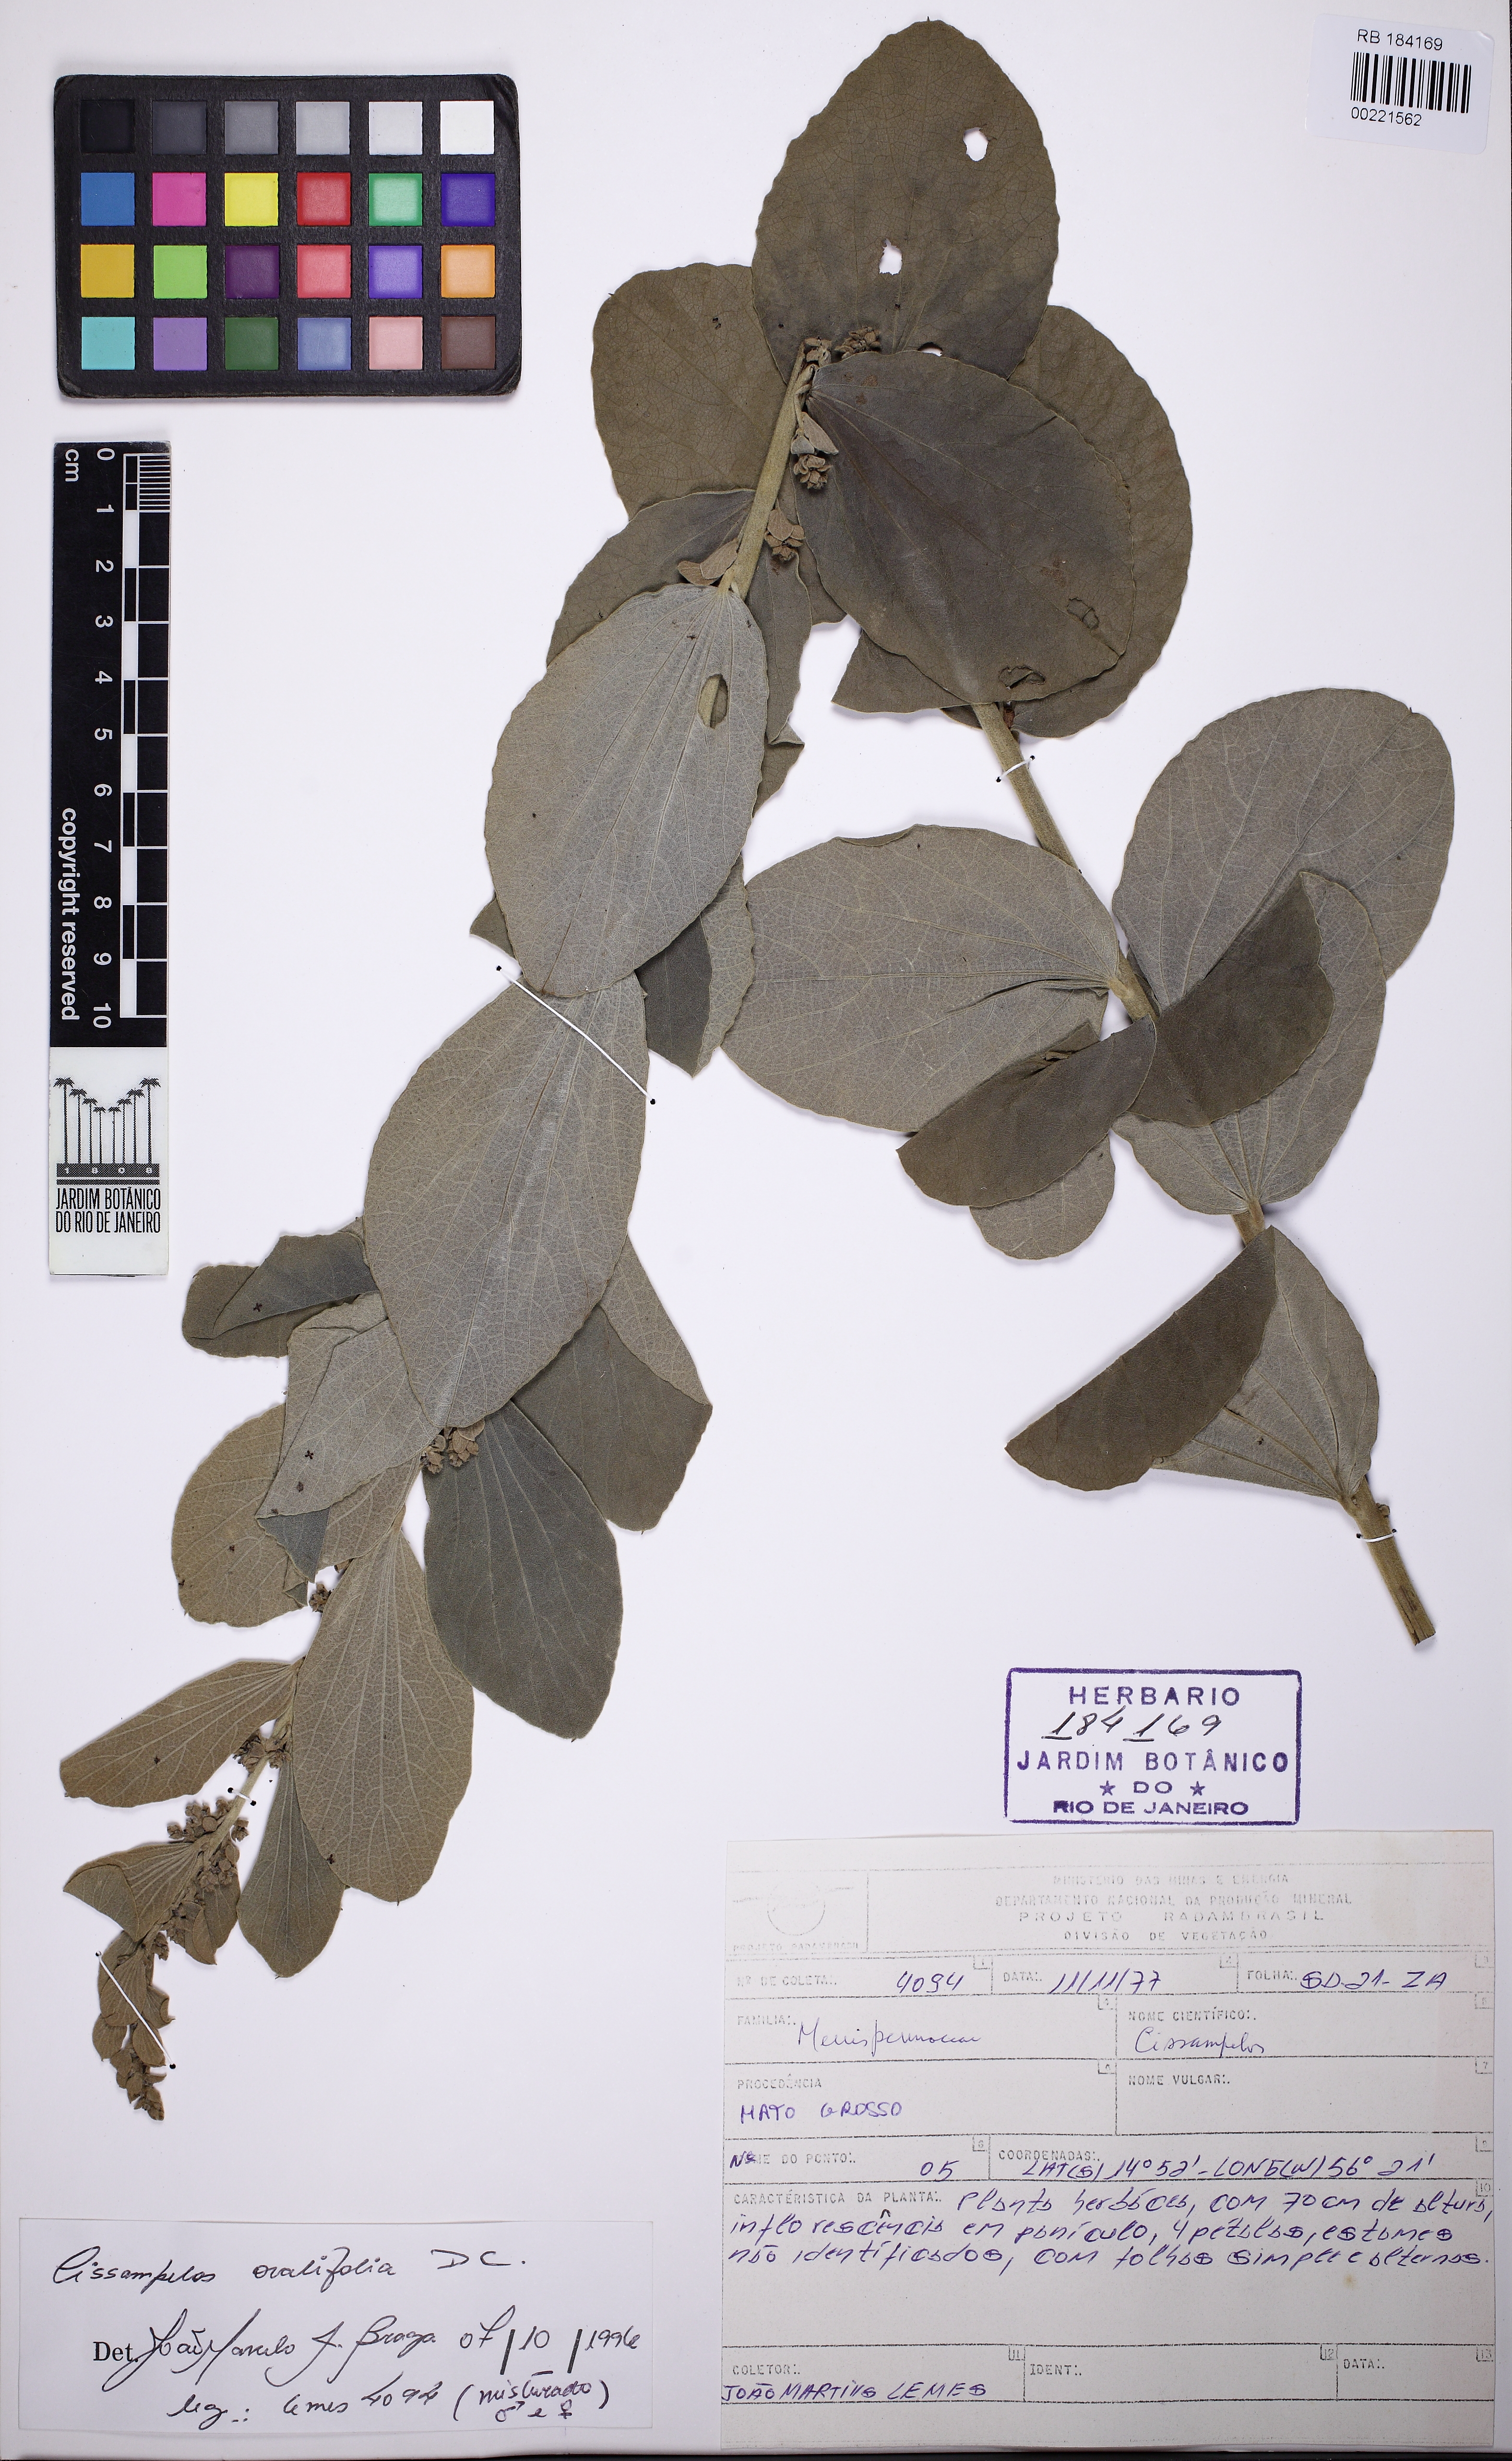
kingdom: Plantae
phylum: Tracheophyta
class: Magnoliopsida
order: Ranunculales
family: Menispermaceae
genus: Cissampelos
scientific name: Cissampelos ovalifolia
